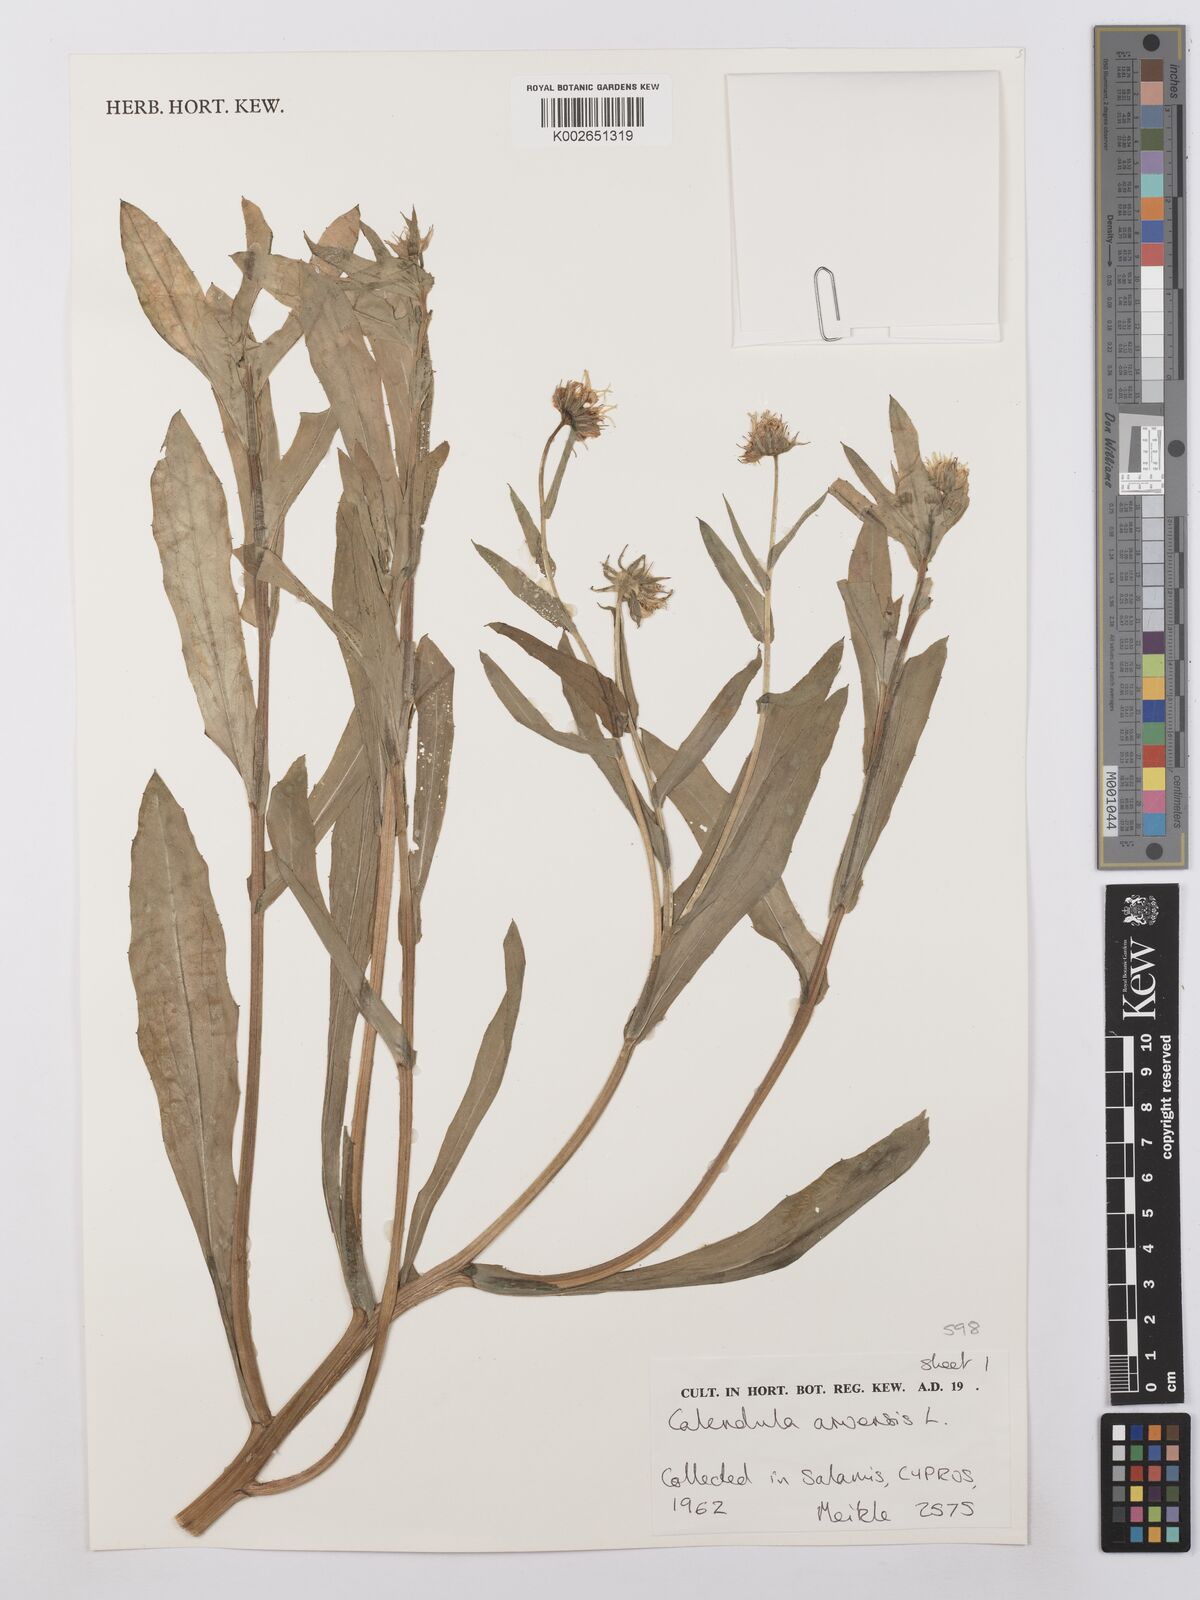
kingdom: Plantae
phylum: Tracheophyta
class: Magnoliopsida
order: Asterales
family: Asteraceae
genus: Calendula
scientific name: Calendula arvensis
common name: Field marigold
